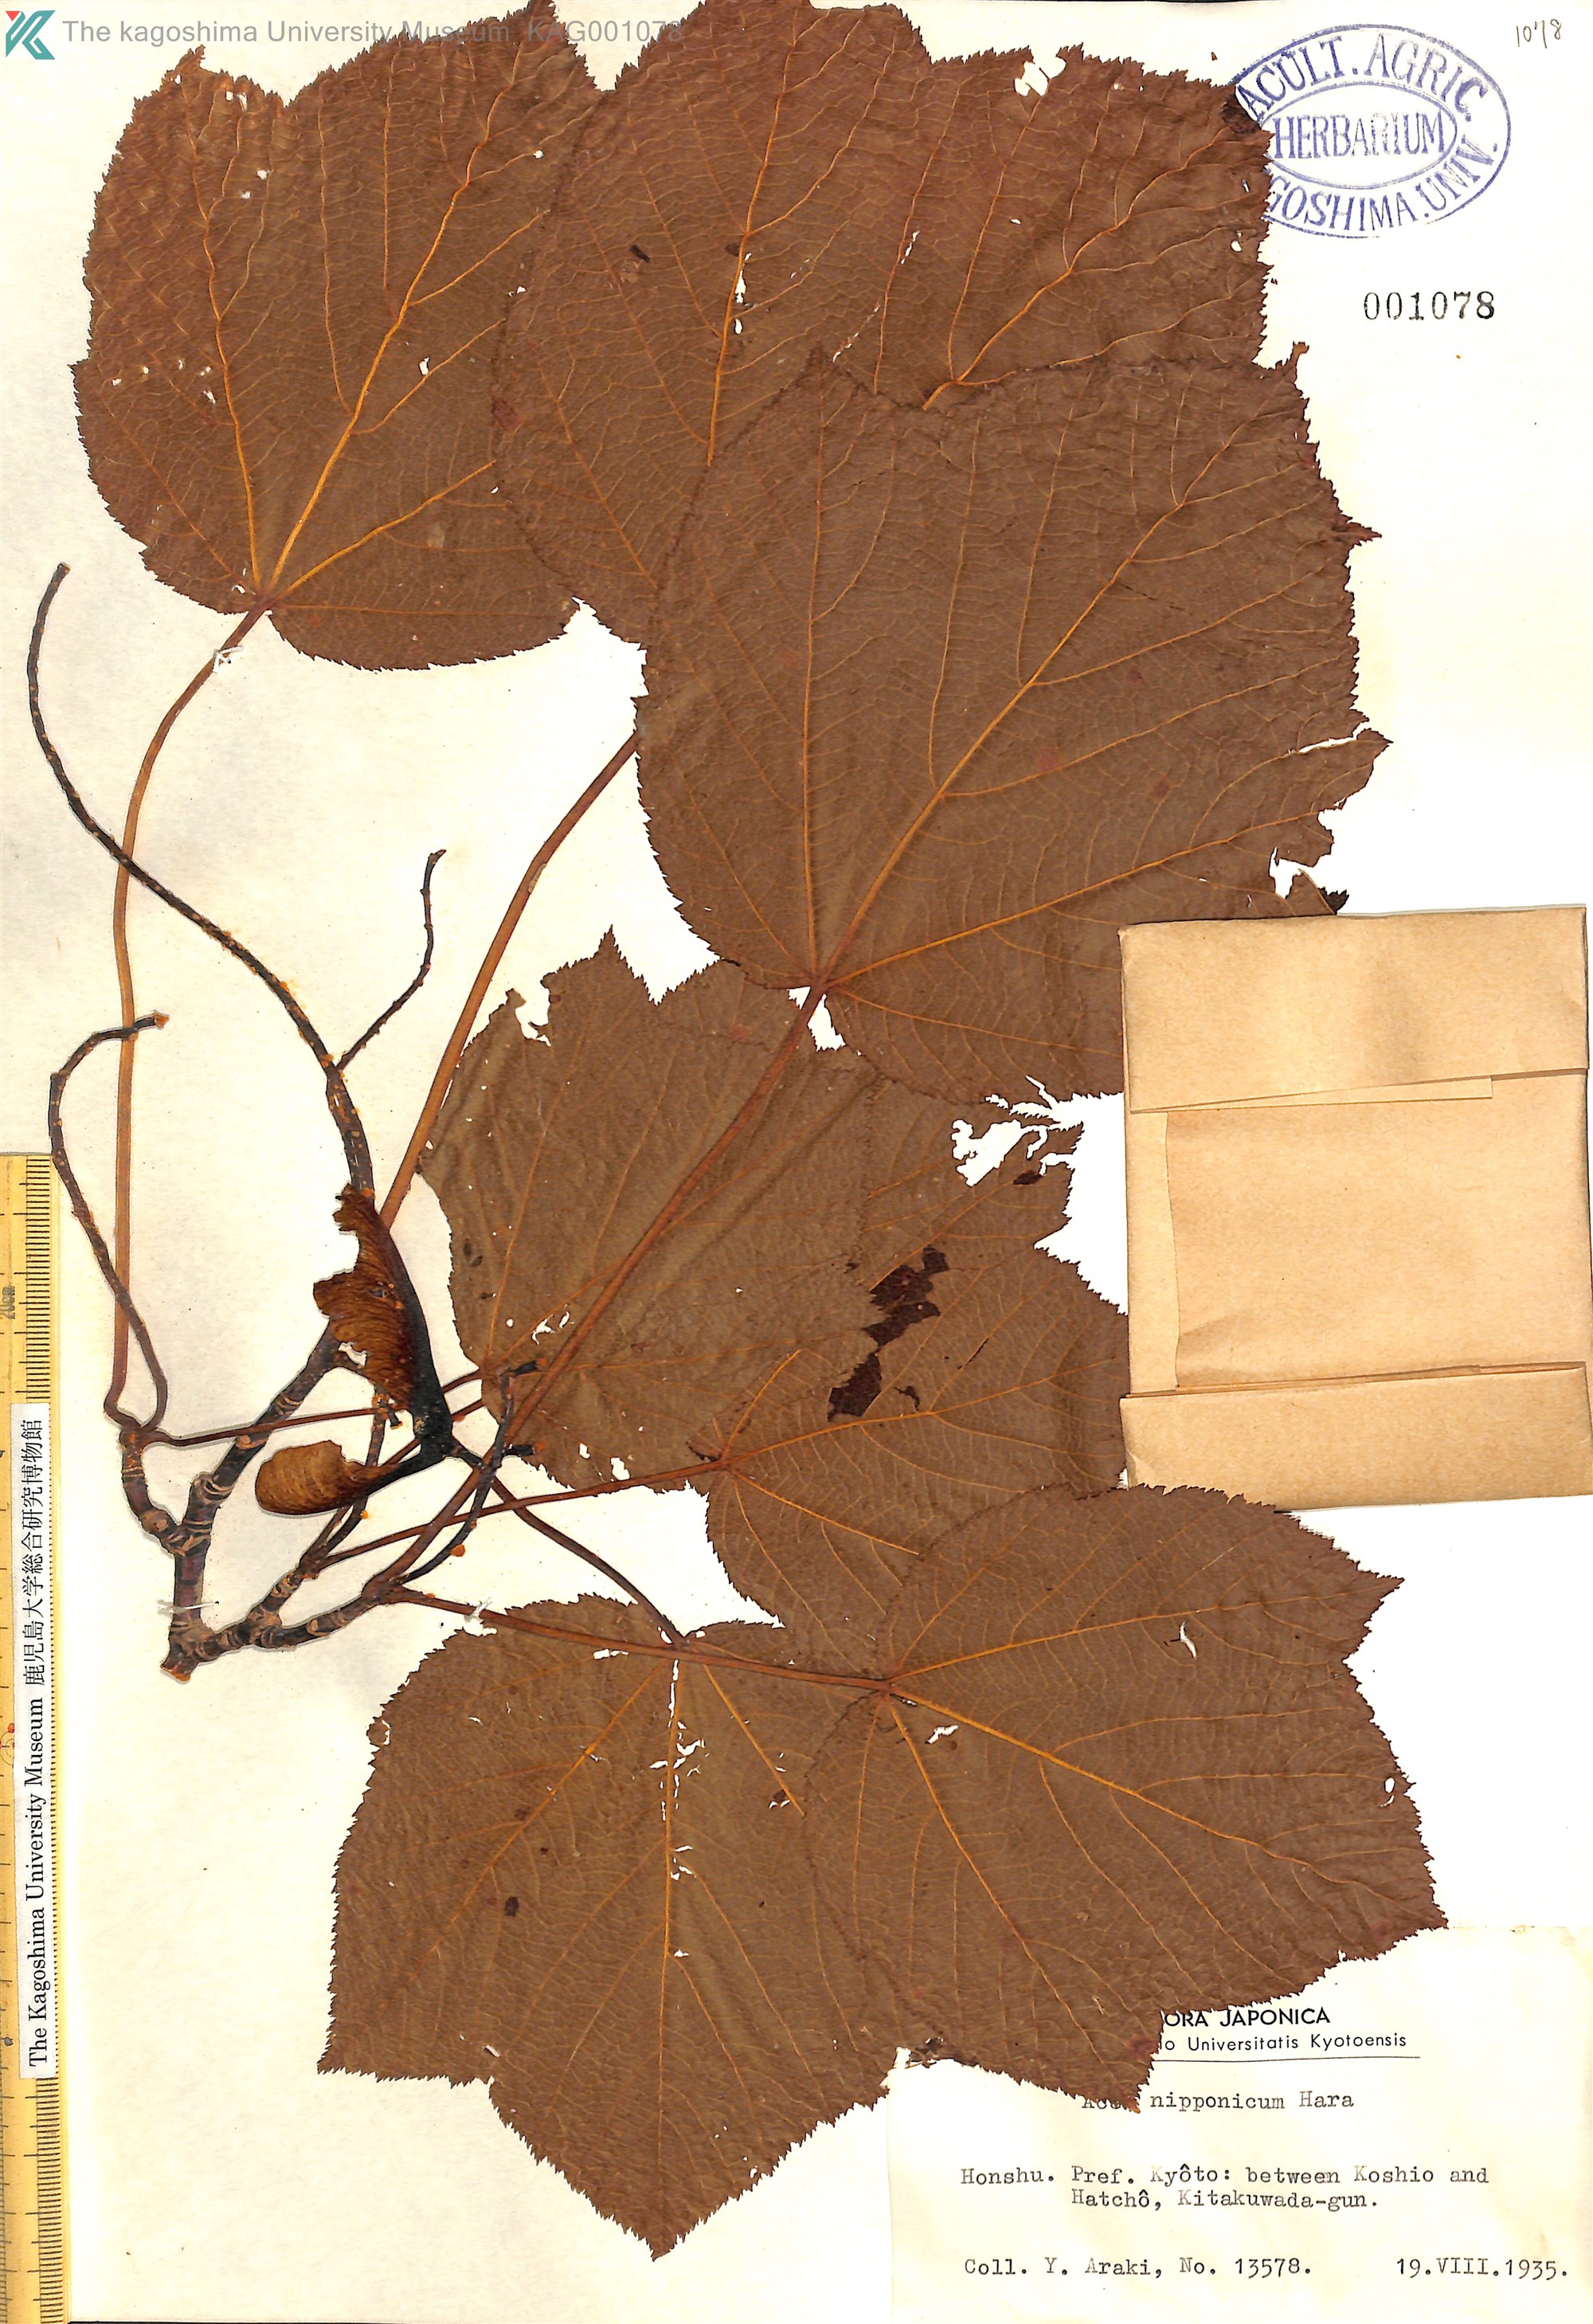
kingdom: Plantae
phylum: Tracheophyta
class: Magnoliopsida
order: Sapindales
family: Sapindaceae
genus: Acer
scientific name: Acer nipponicum
